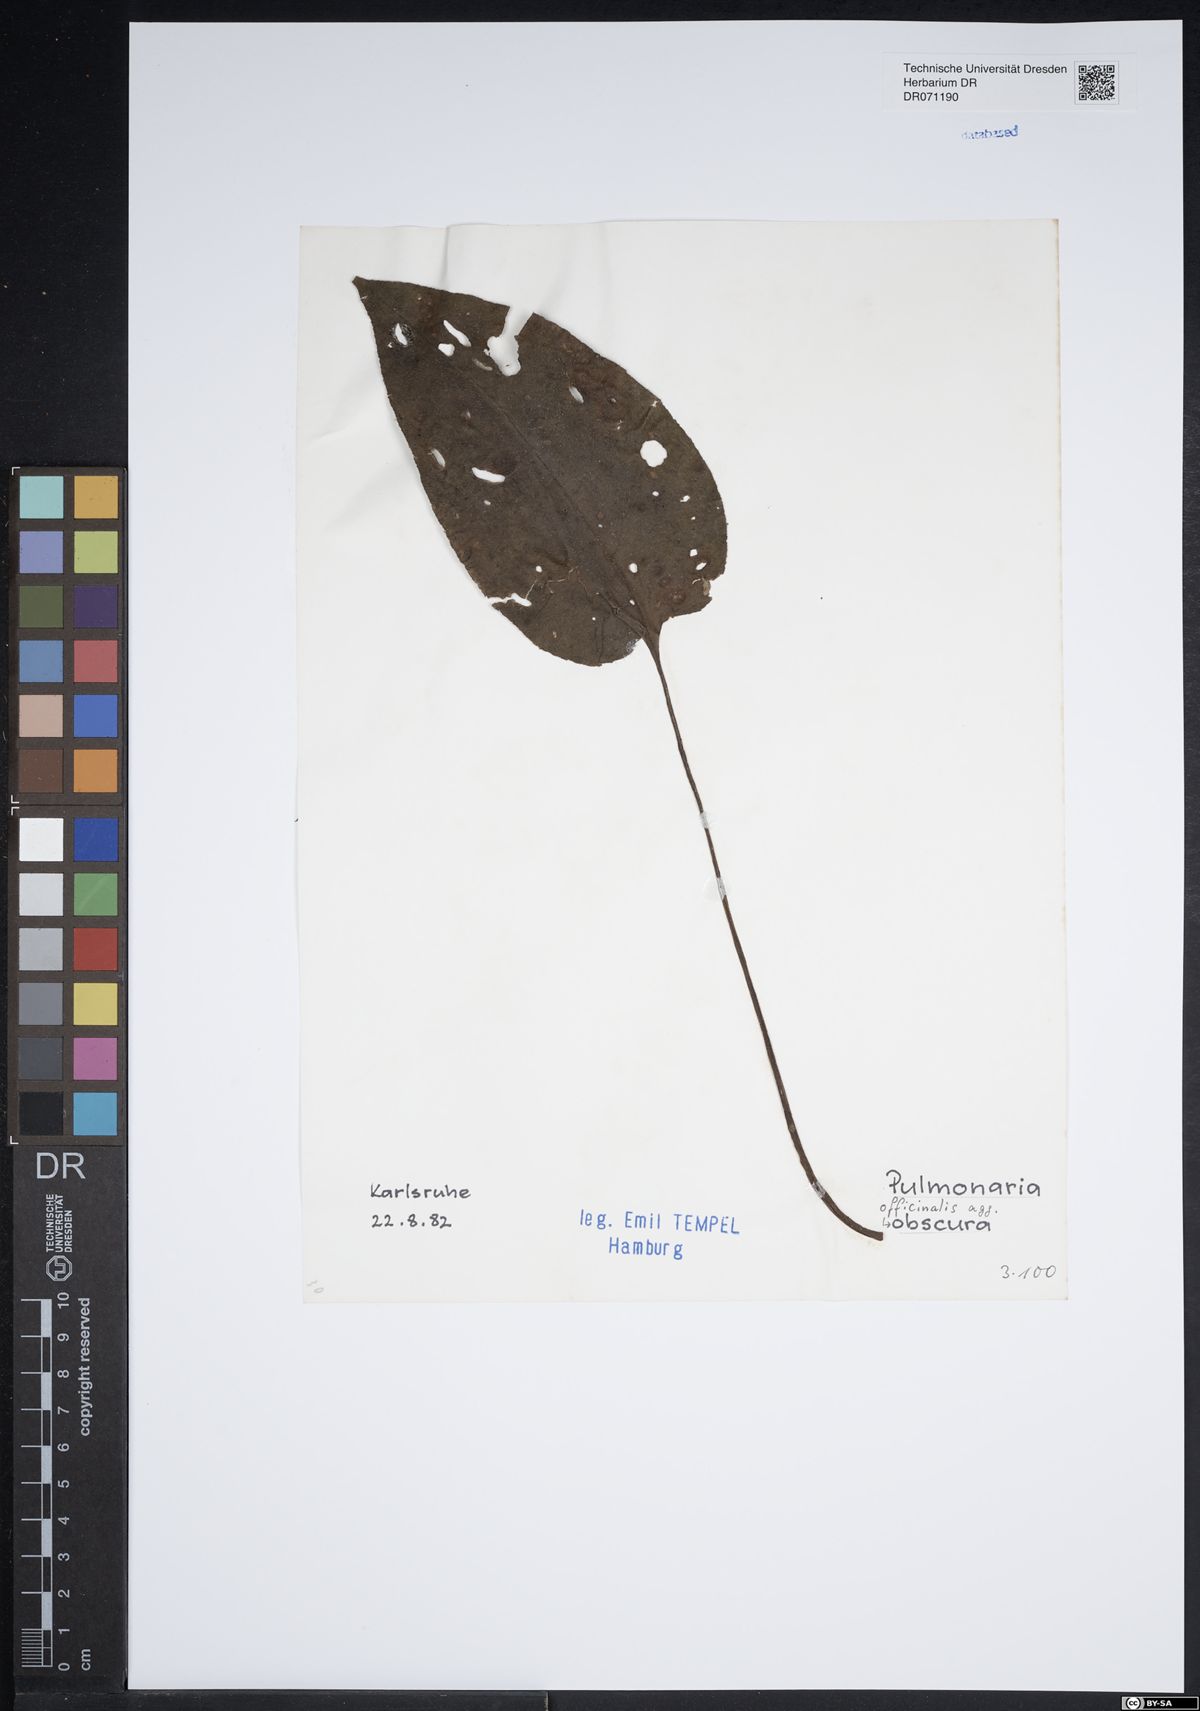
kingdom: Plantae
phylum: Tracheophyta
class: Magnoliopsida
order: Boraginales
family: Boraginaceae
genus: Pulmonaria
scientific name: Pulmonaria officinalis
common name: Lungwort
